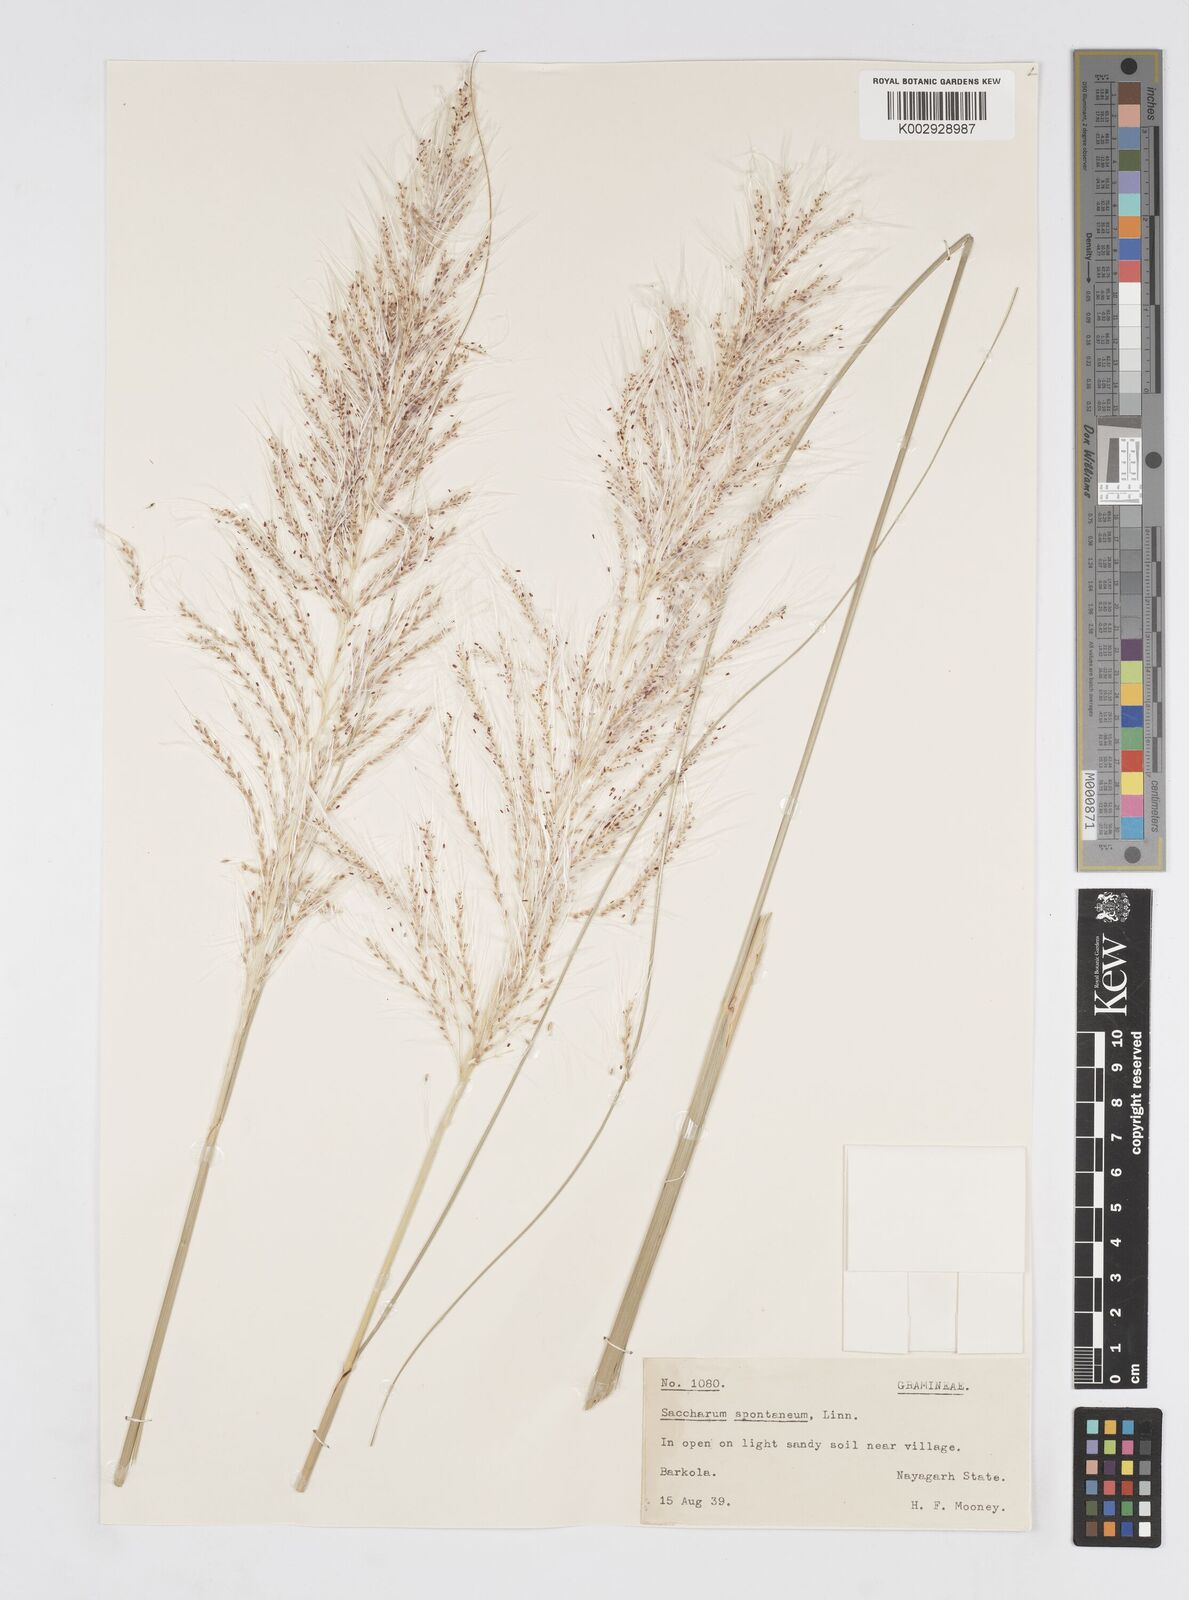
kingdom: Plantae
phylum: Tracheophyta
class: Liliopsida
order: Poales
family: Poaceae
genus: Saccharum
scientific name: Saccharum spontaneum
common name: Wild sugarcane
